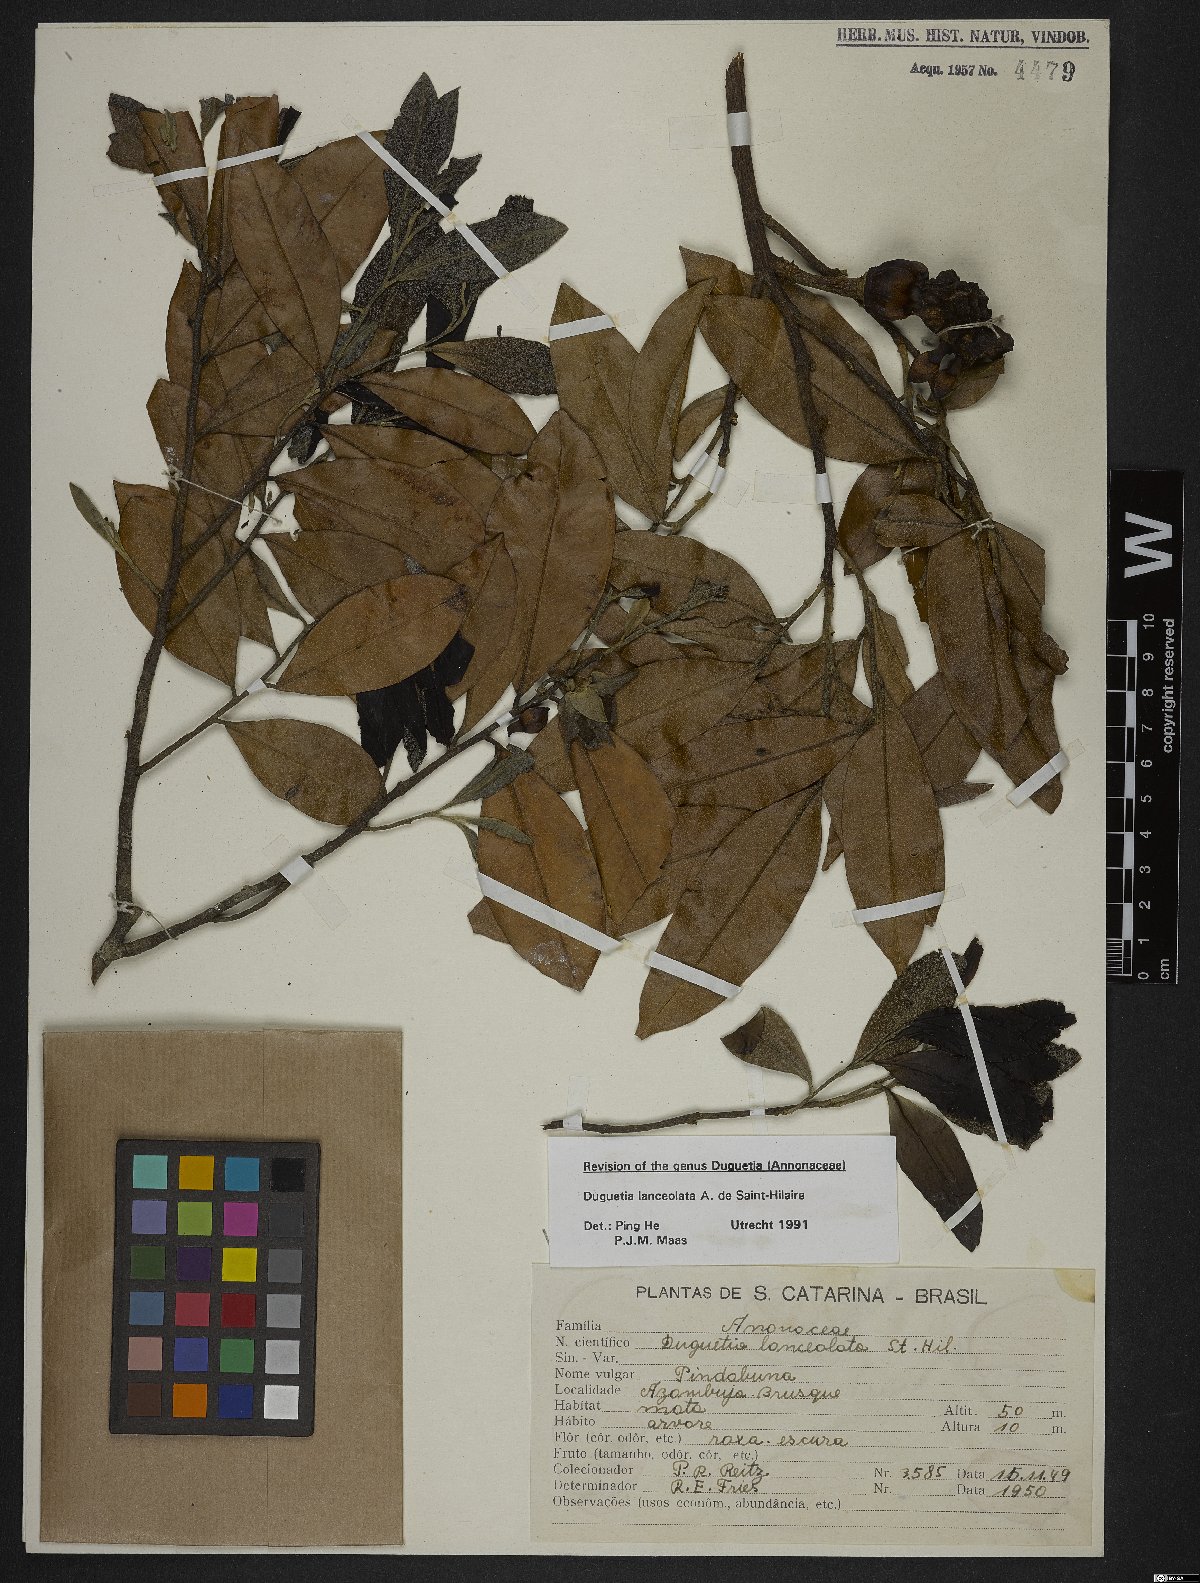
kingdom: Plantae
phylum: Tracheophyta
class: Magnoliopsida
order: Magnoliales
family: Annonaceae
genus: Duguetia
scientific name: Duguetia lanceolata
